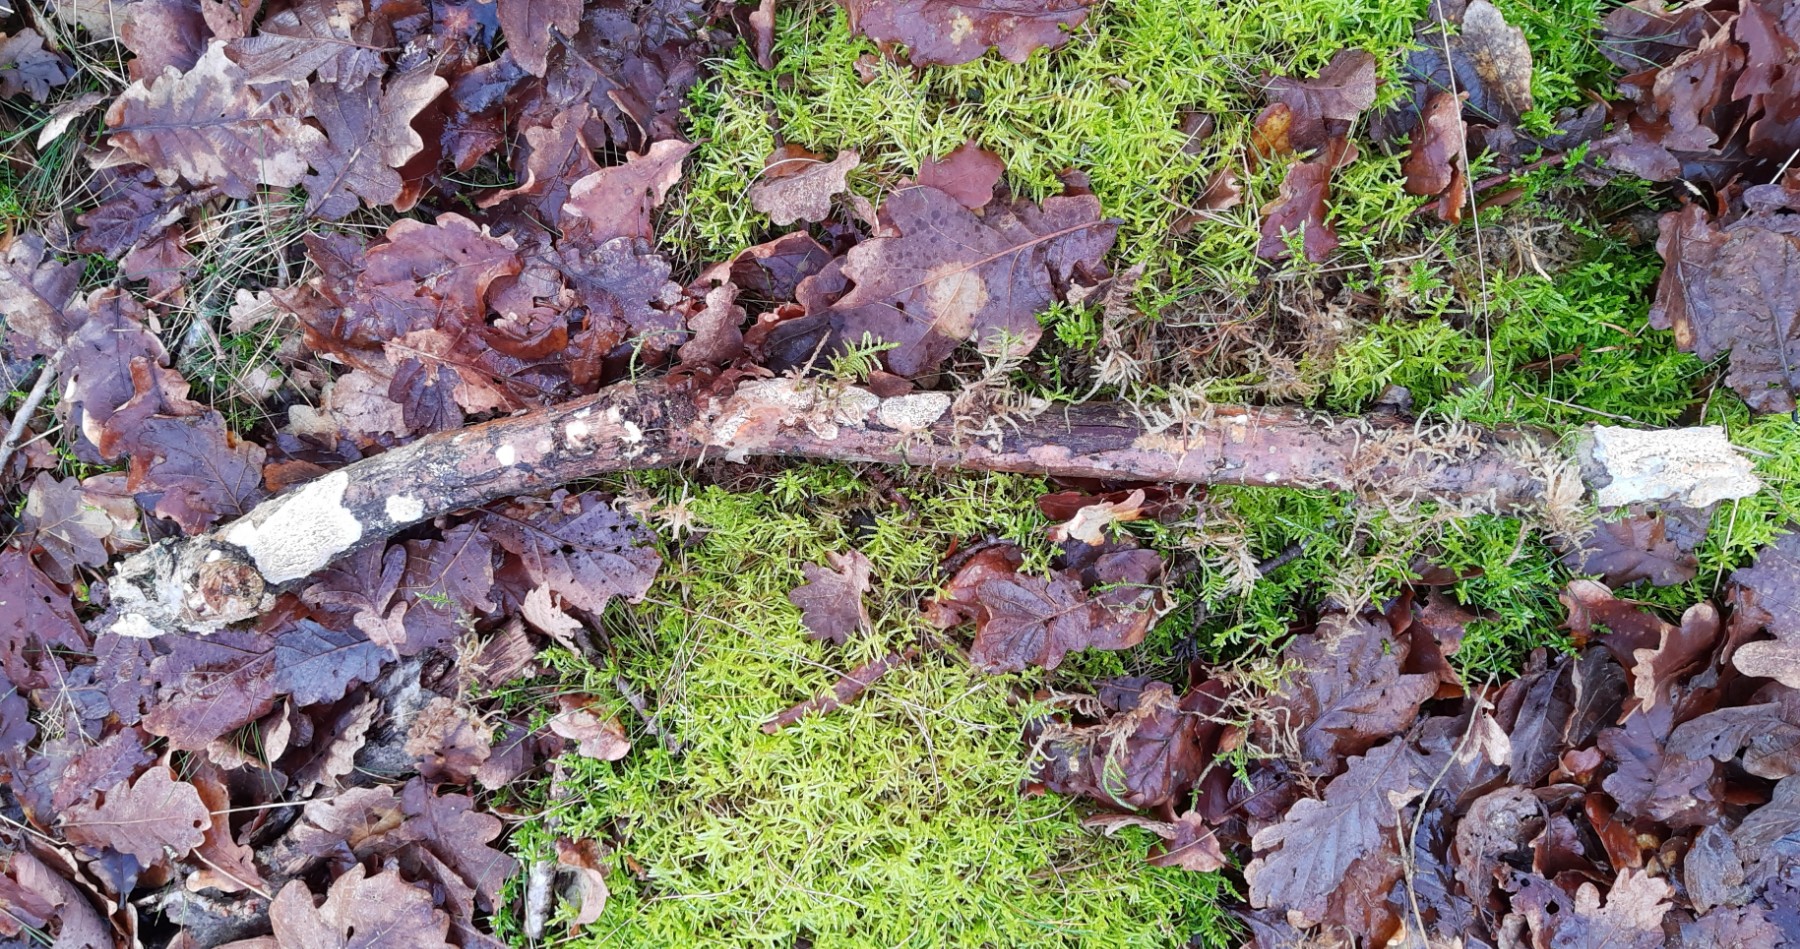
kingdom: Fungi
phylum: Basidiomycota
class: Agaricomycetes
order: Agaricales
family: Radulomycetaceae
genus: Radulomyces
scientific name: Radulomyces molaris
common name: tandet naftalinskind
